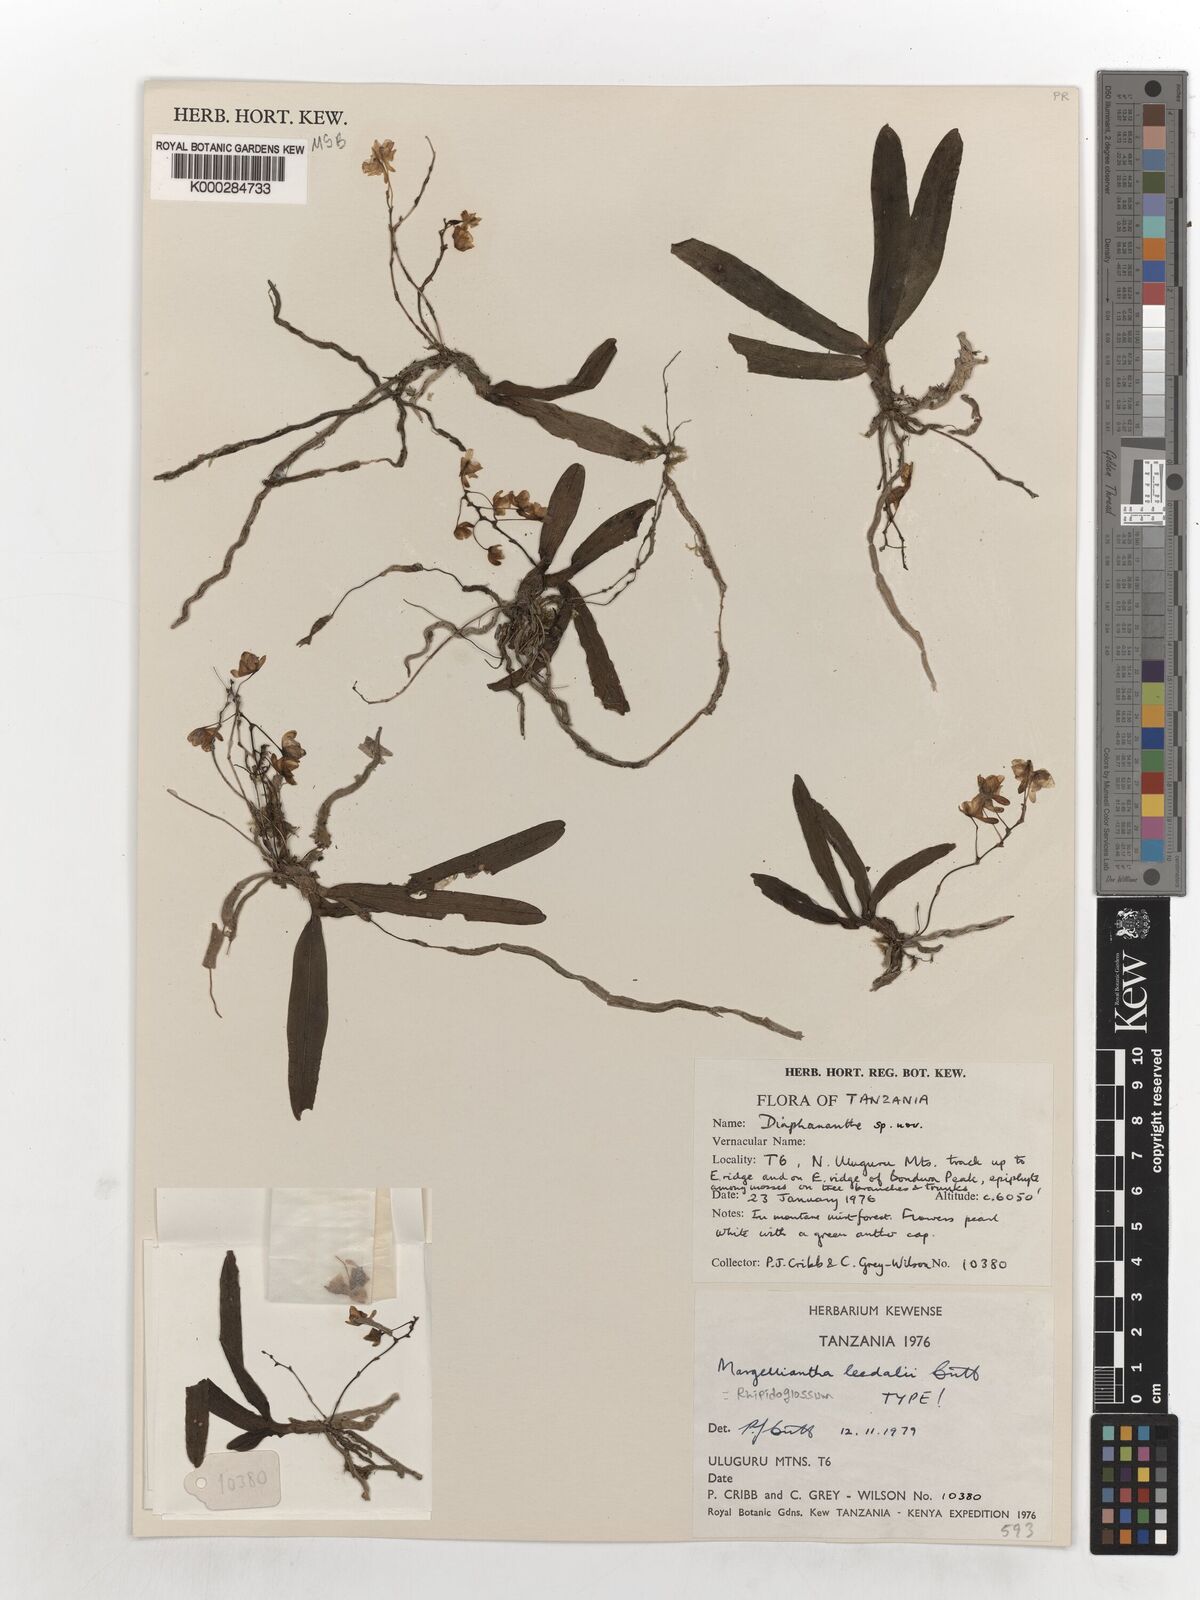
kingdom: Plantae
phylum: Tracheophyta
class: Liliopsida
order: Asparagales
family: Orchidaceae
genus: Rhipidoglossum
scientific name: Rhipidoglossum leedalii
